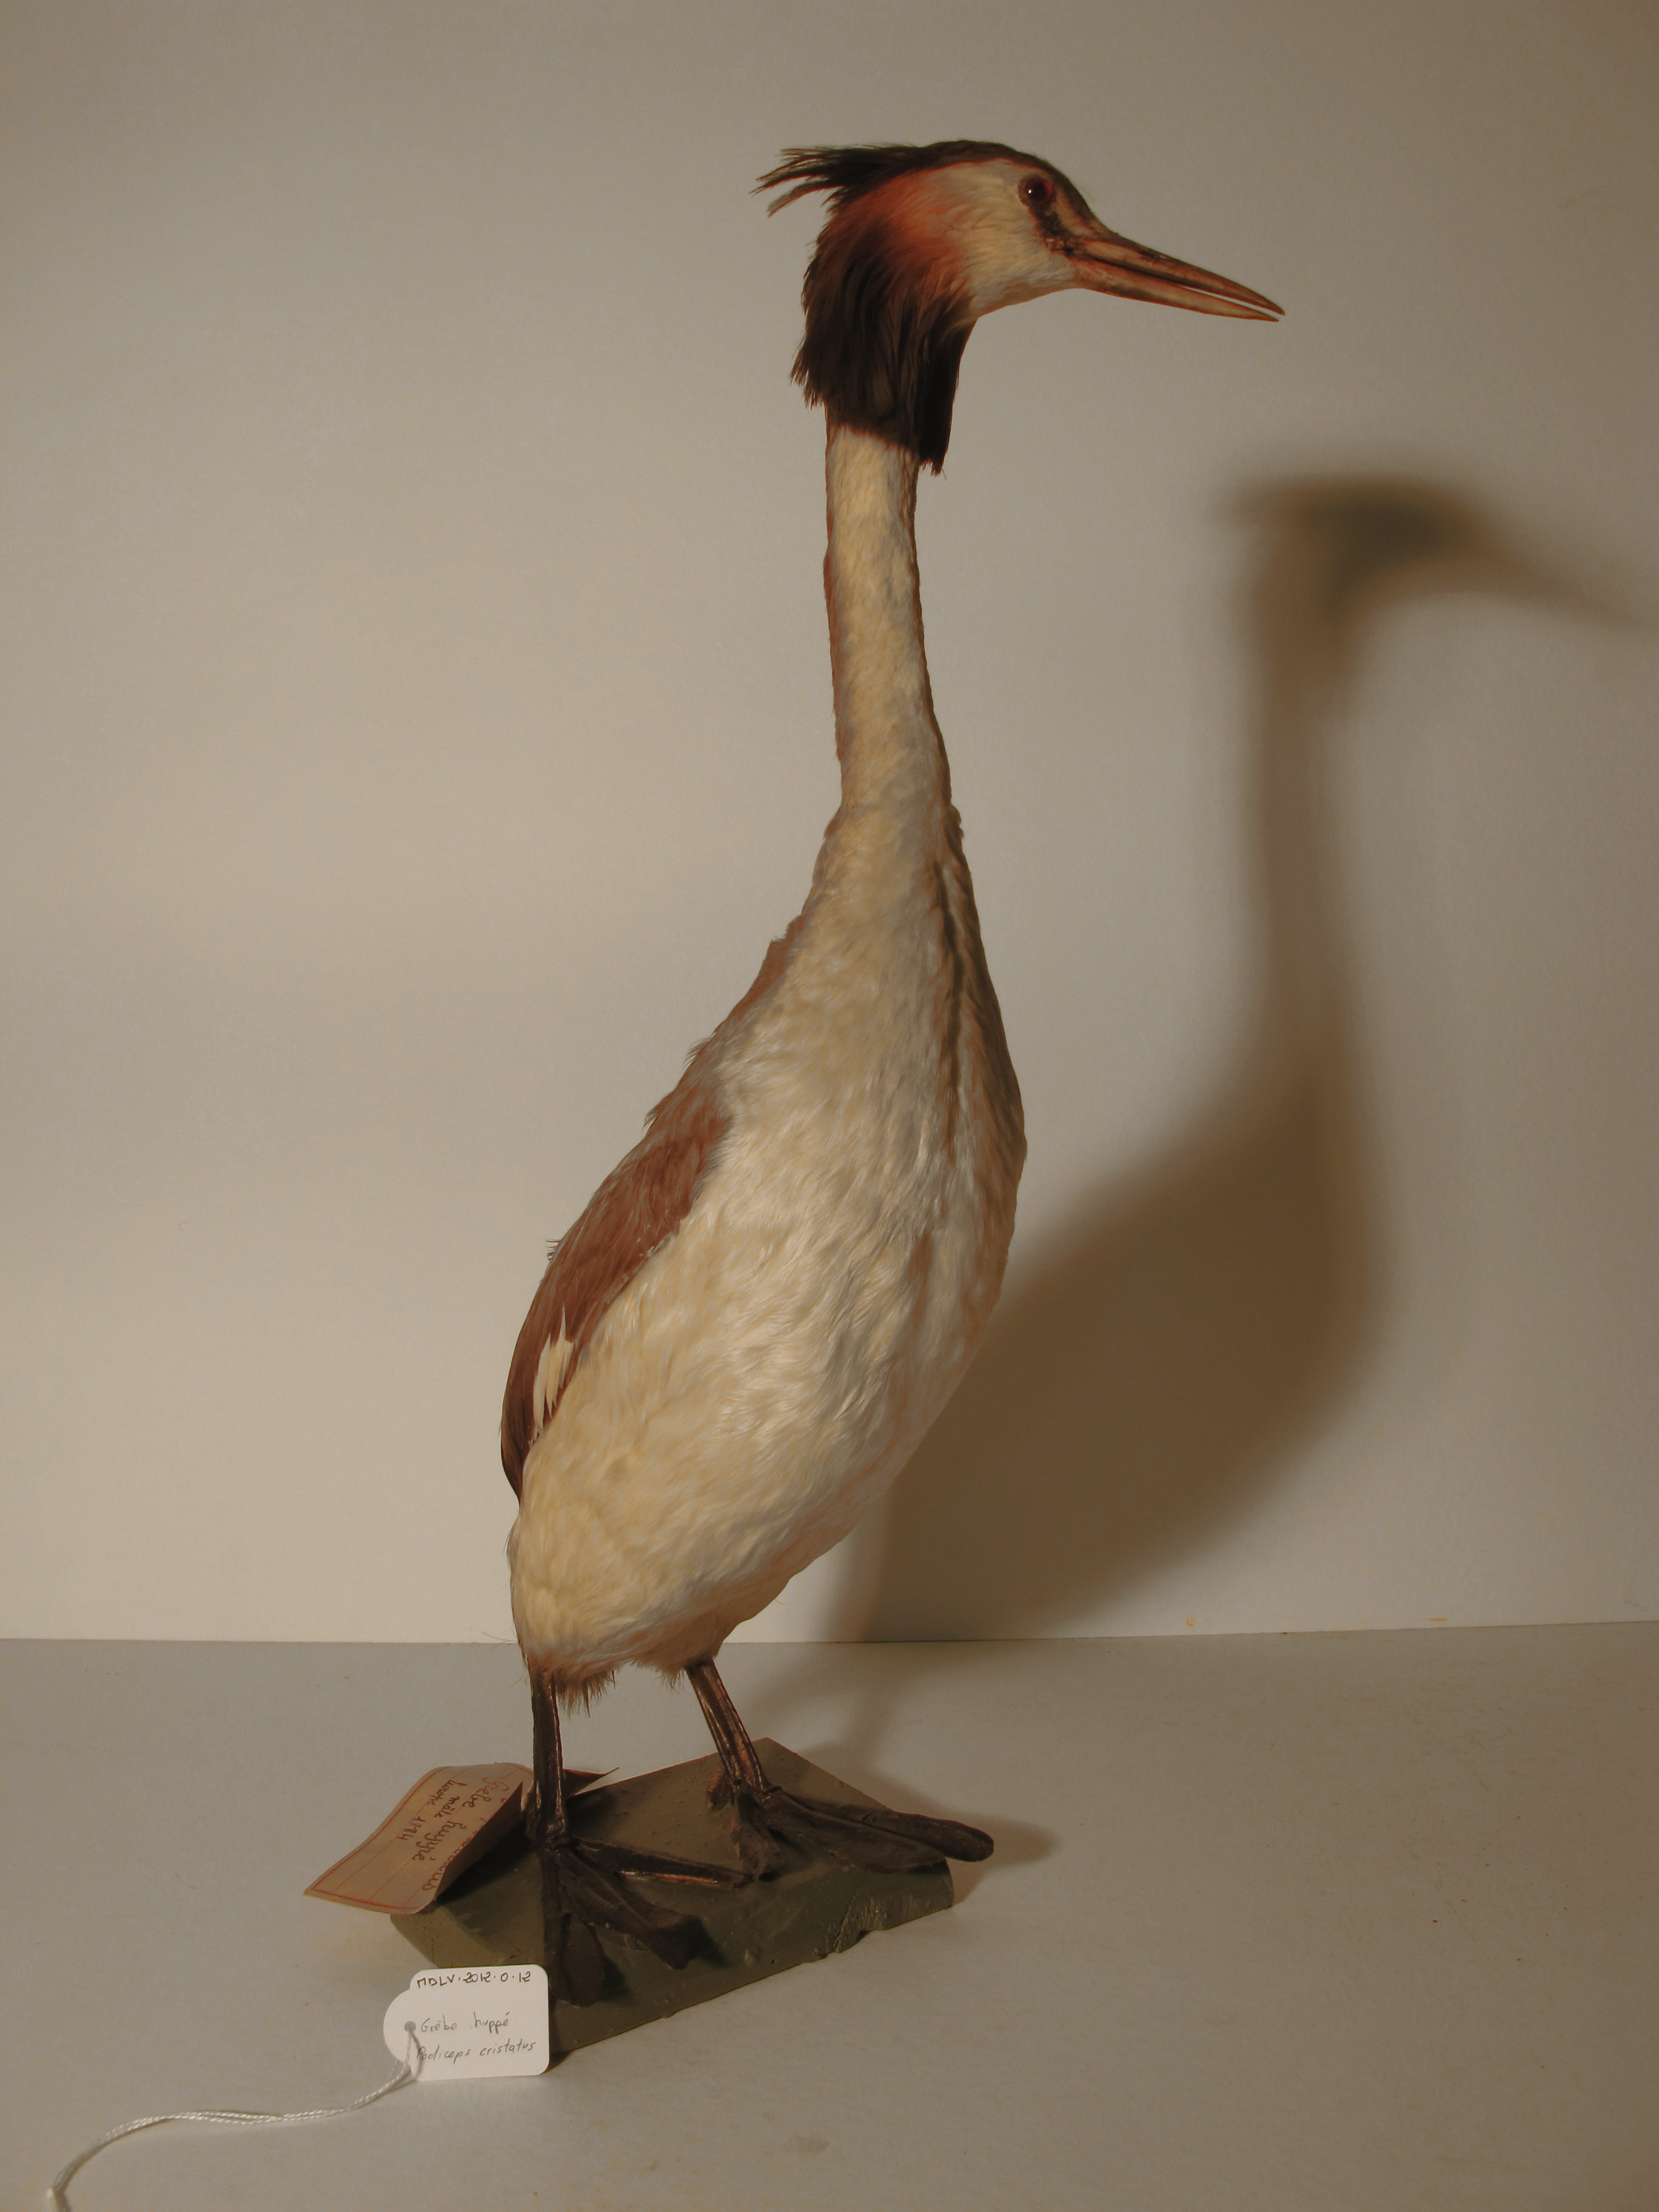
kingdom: Animalia
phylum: Chordata
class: Aves
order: Podicipediformes
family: Podicipedidae
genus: Podiceps
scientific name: Podiceps cristatus
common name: Great Crested grebe
